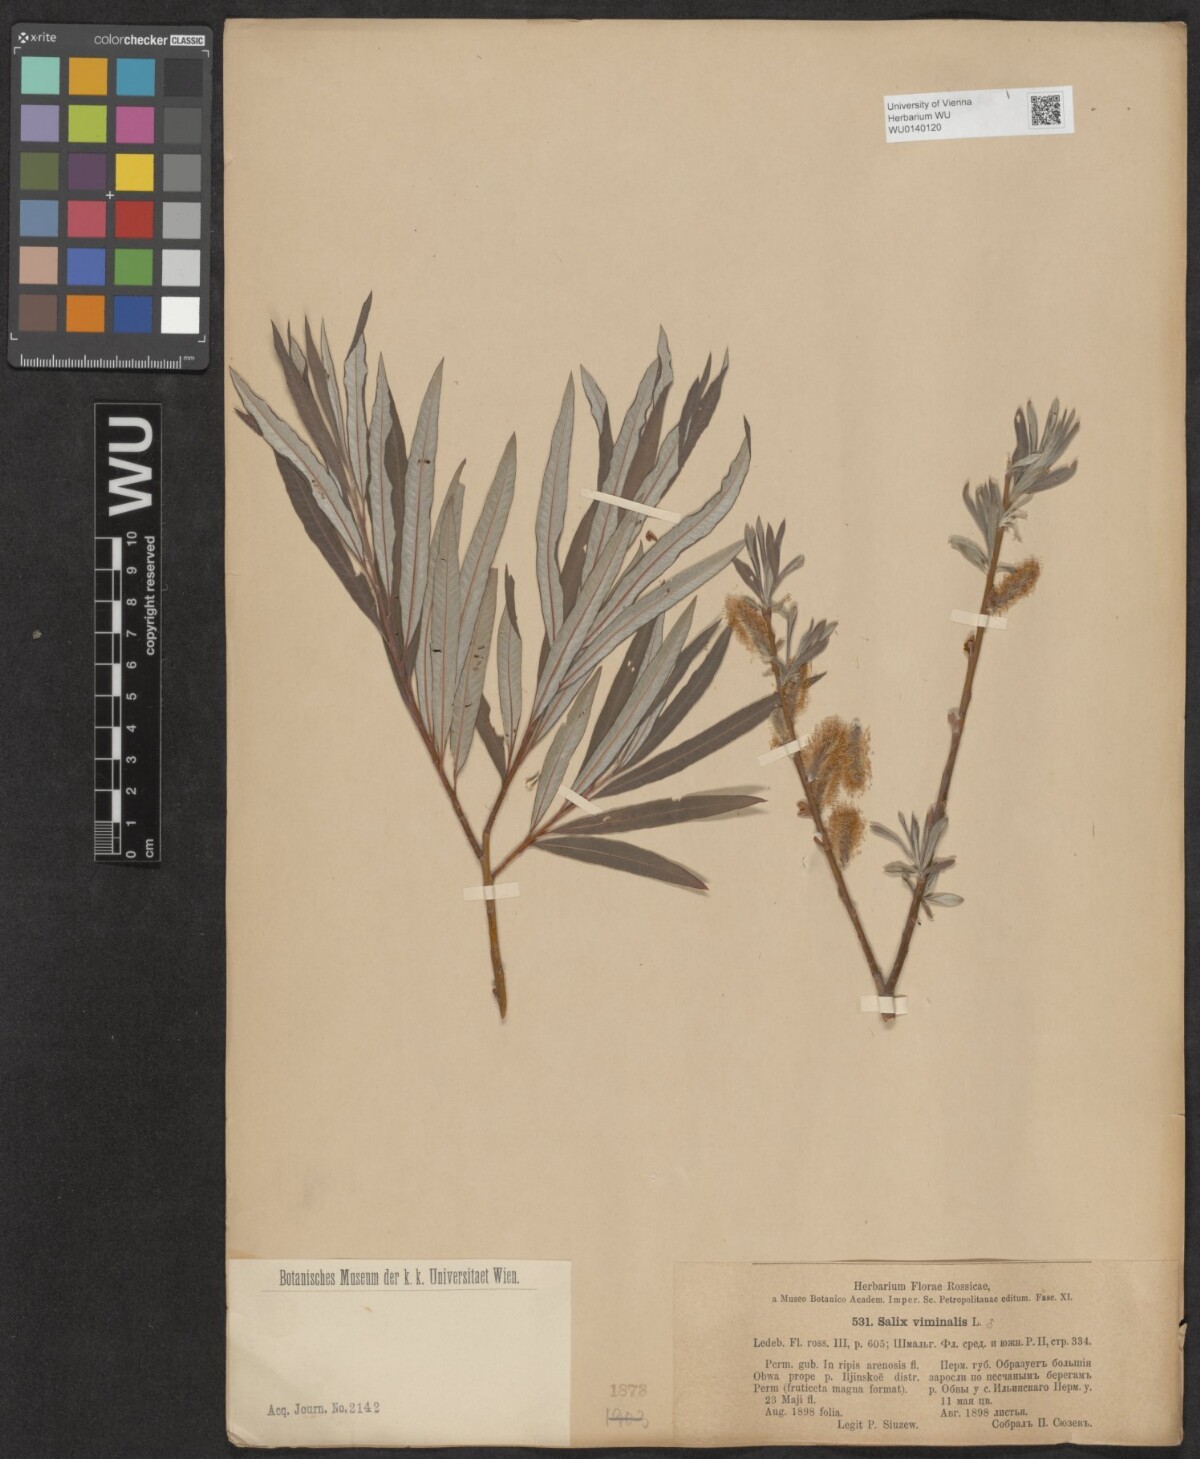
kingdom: Plantae
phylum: Tracheophyta
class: Magnoliopsida
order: Malpighiales
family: Salicaceae
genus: Salix
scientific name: Salix viminalis
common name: Osier
